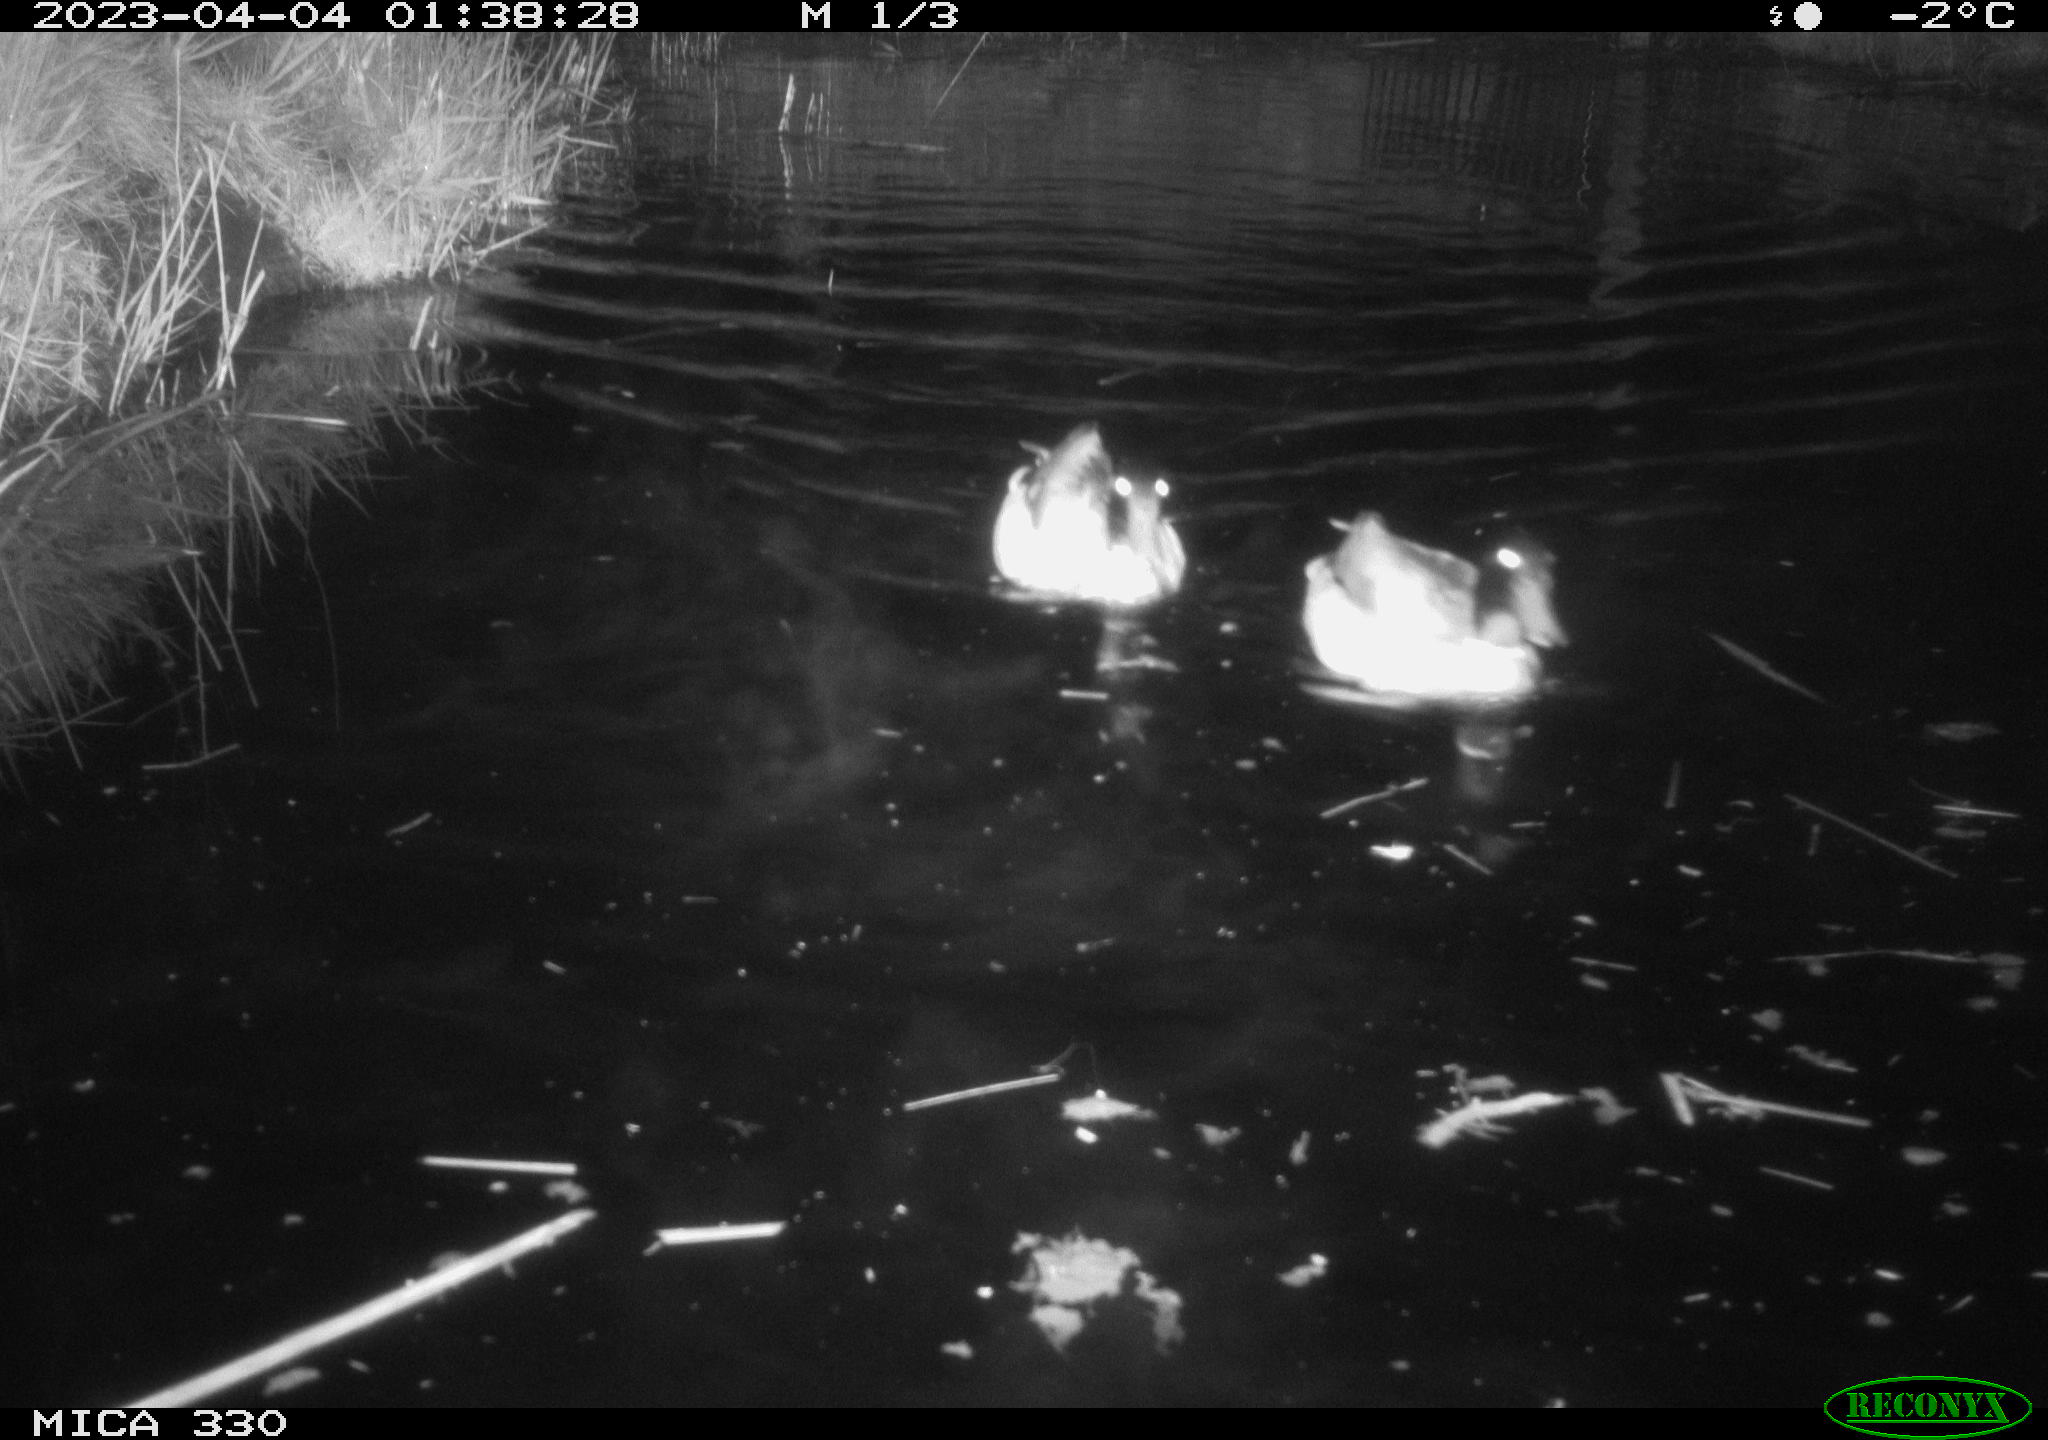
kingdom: Animalia
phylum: Chordata
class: Aves
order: Anseriformes
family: Anatidae
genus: Anas
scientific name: Anas
